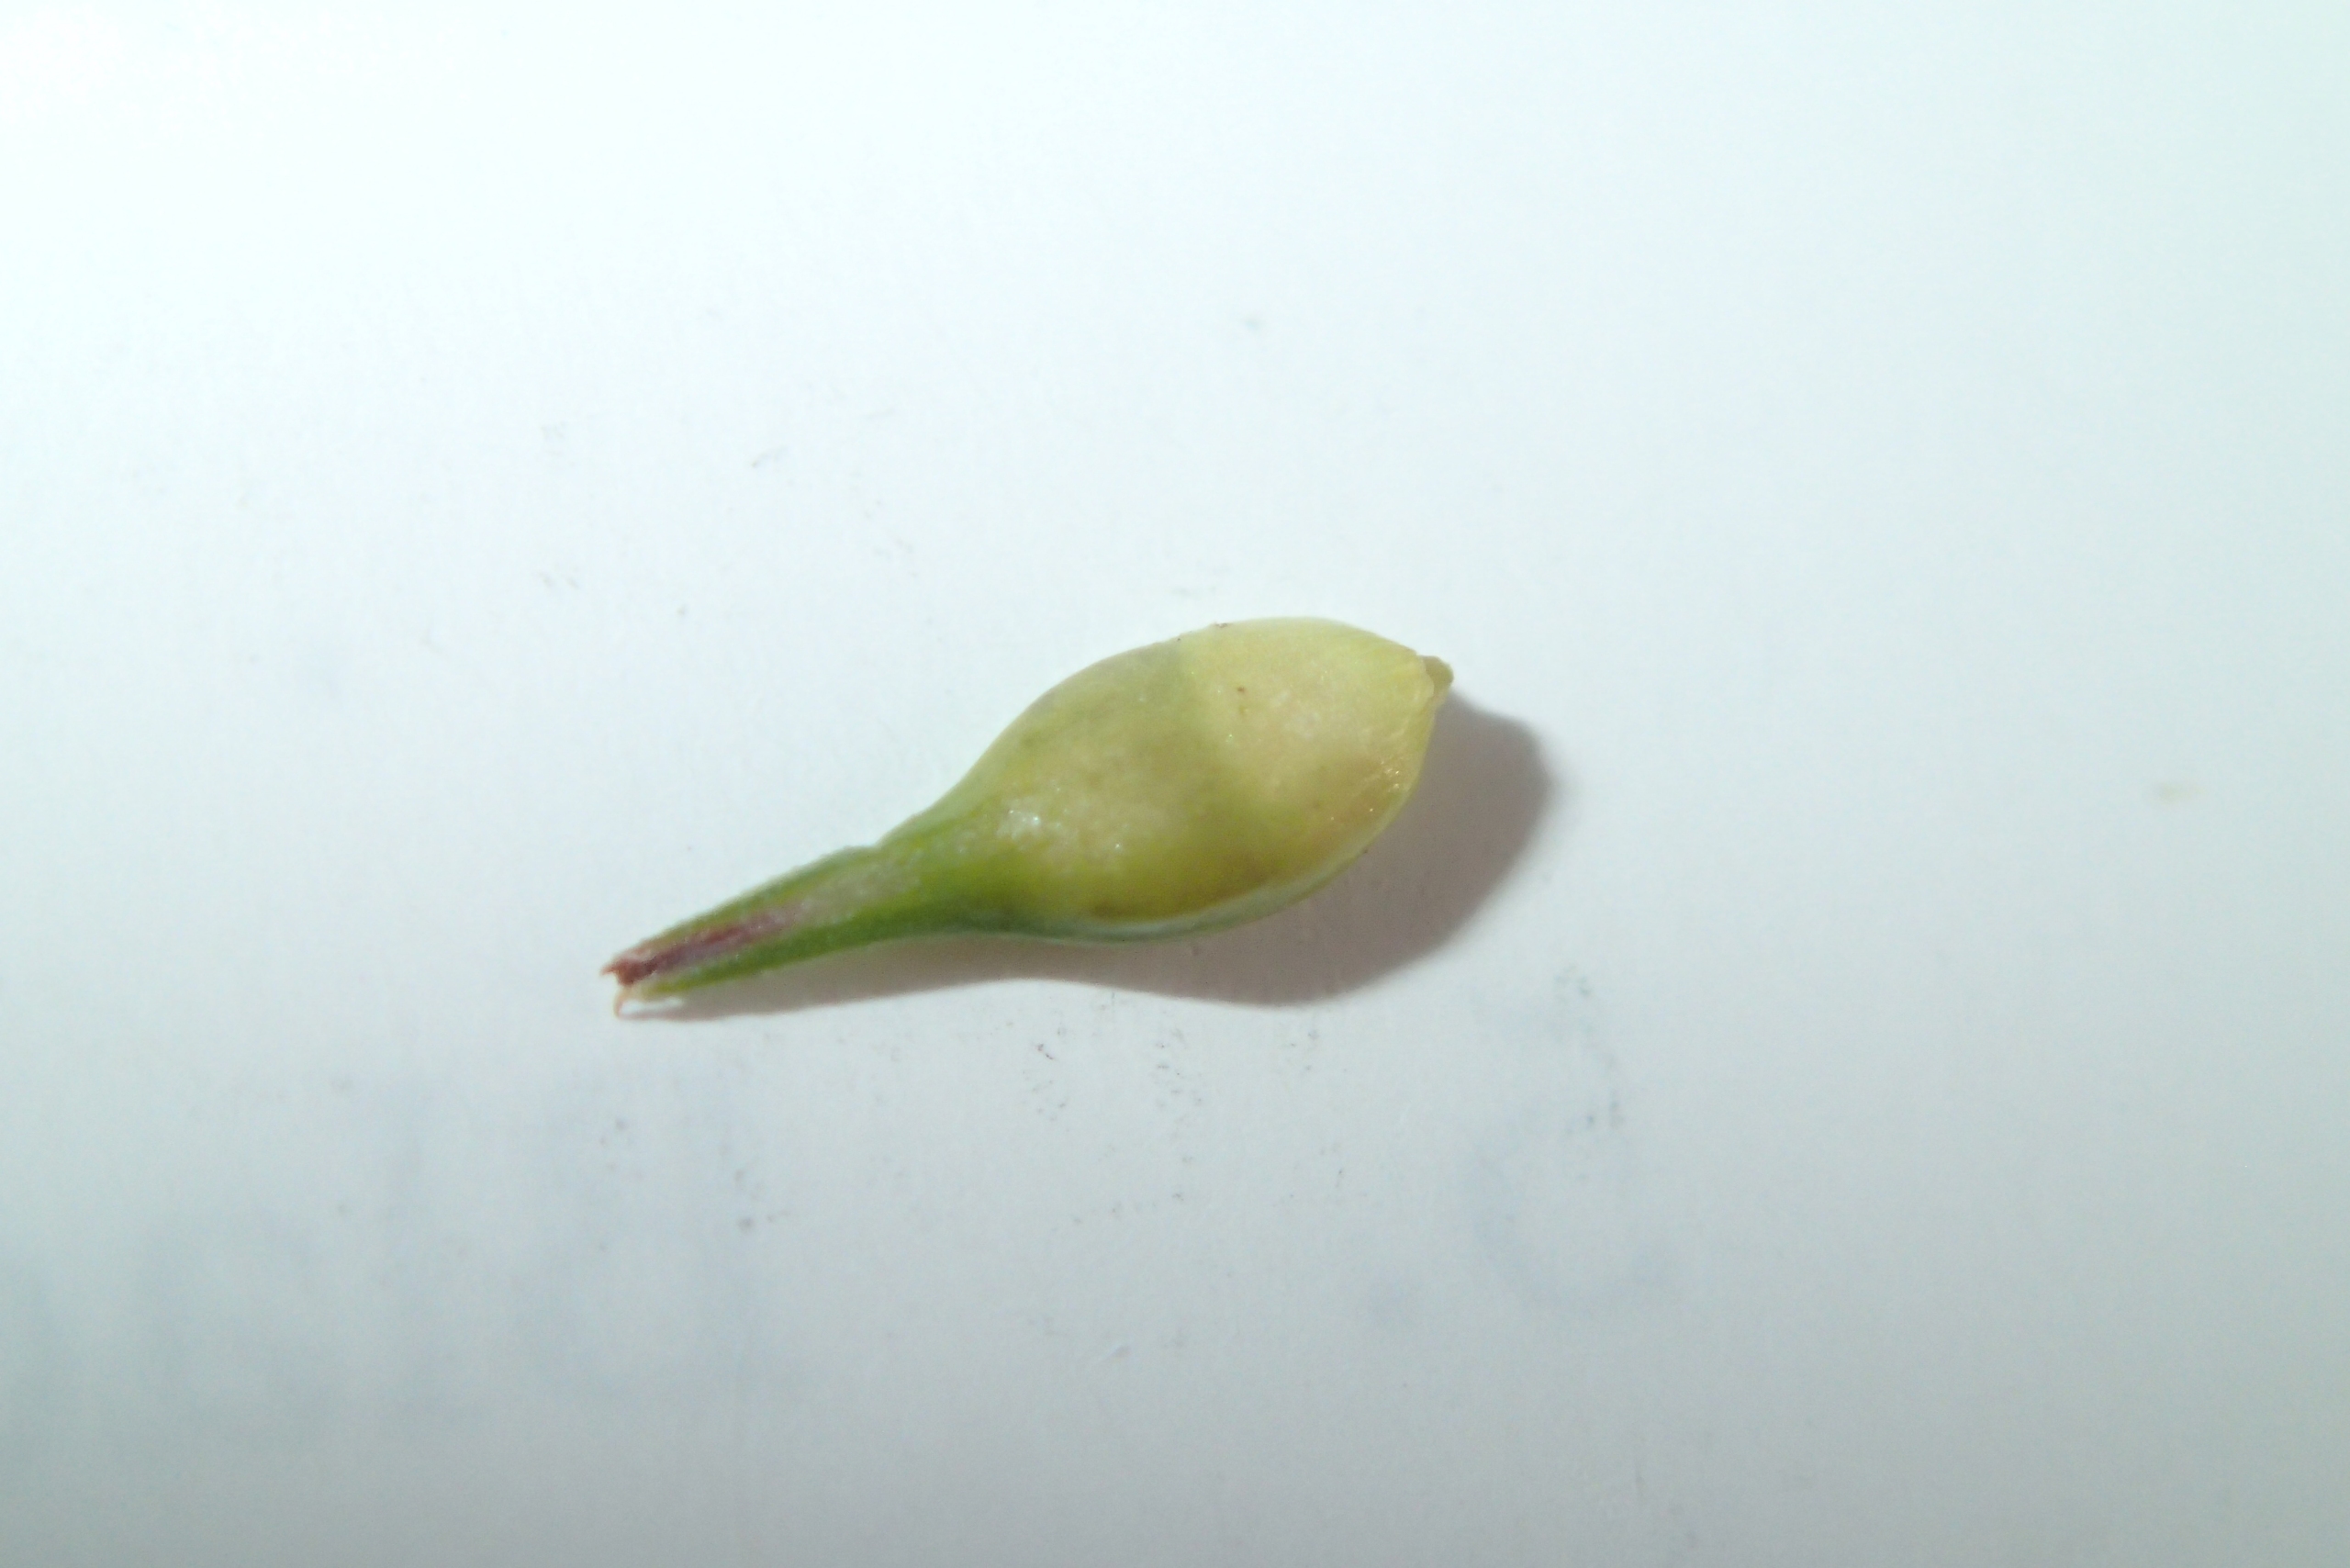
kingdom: Plantae
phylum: Tracheophyta
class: Liliopsida
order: Poales
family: Cyperaceae
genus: Carex
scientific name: Carex spicata
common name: Spidskapslet star
